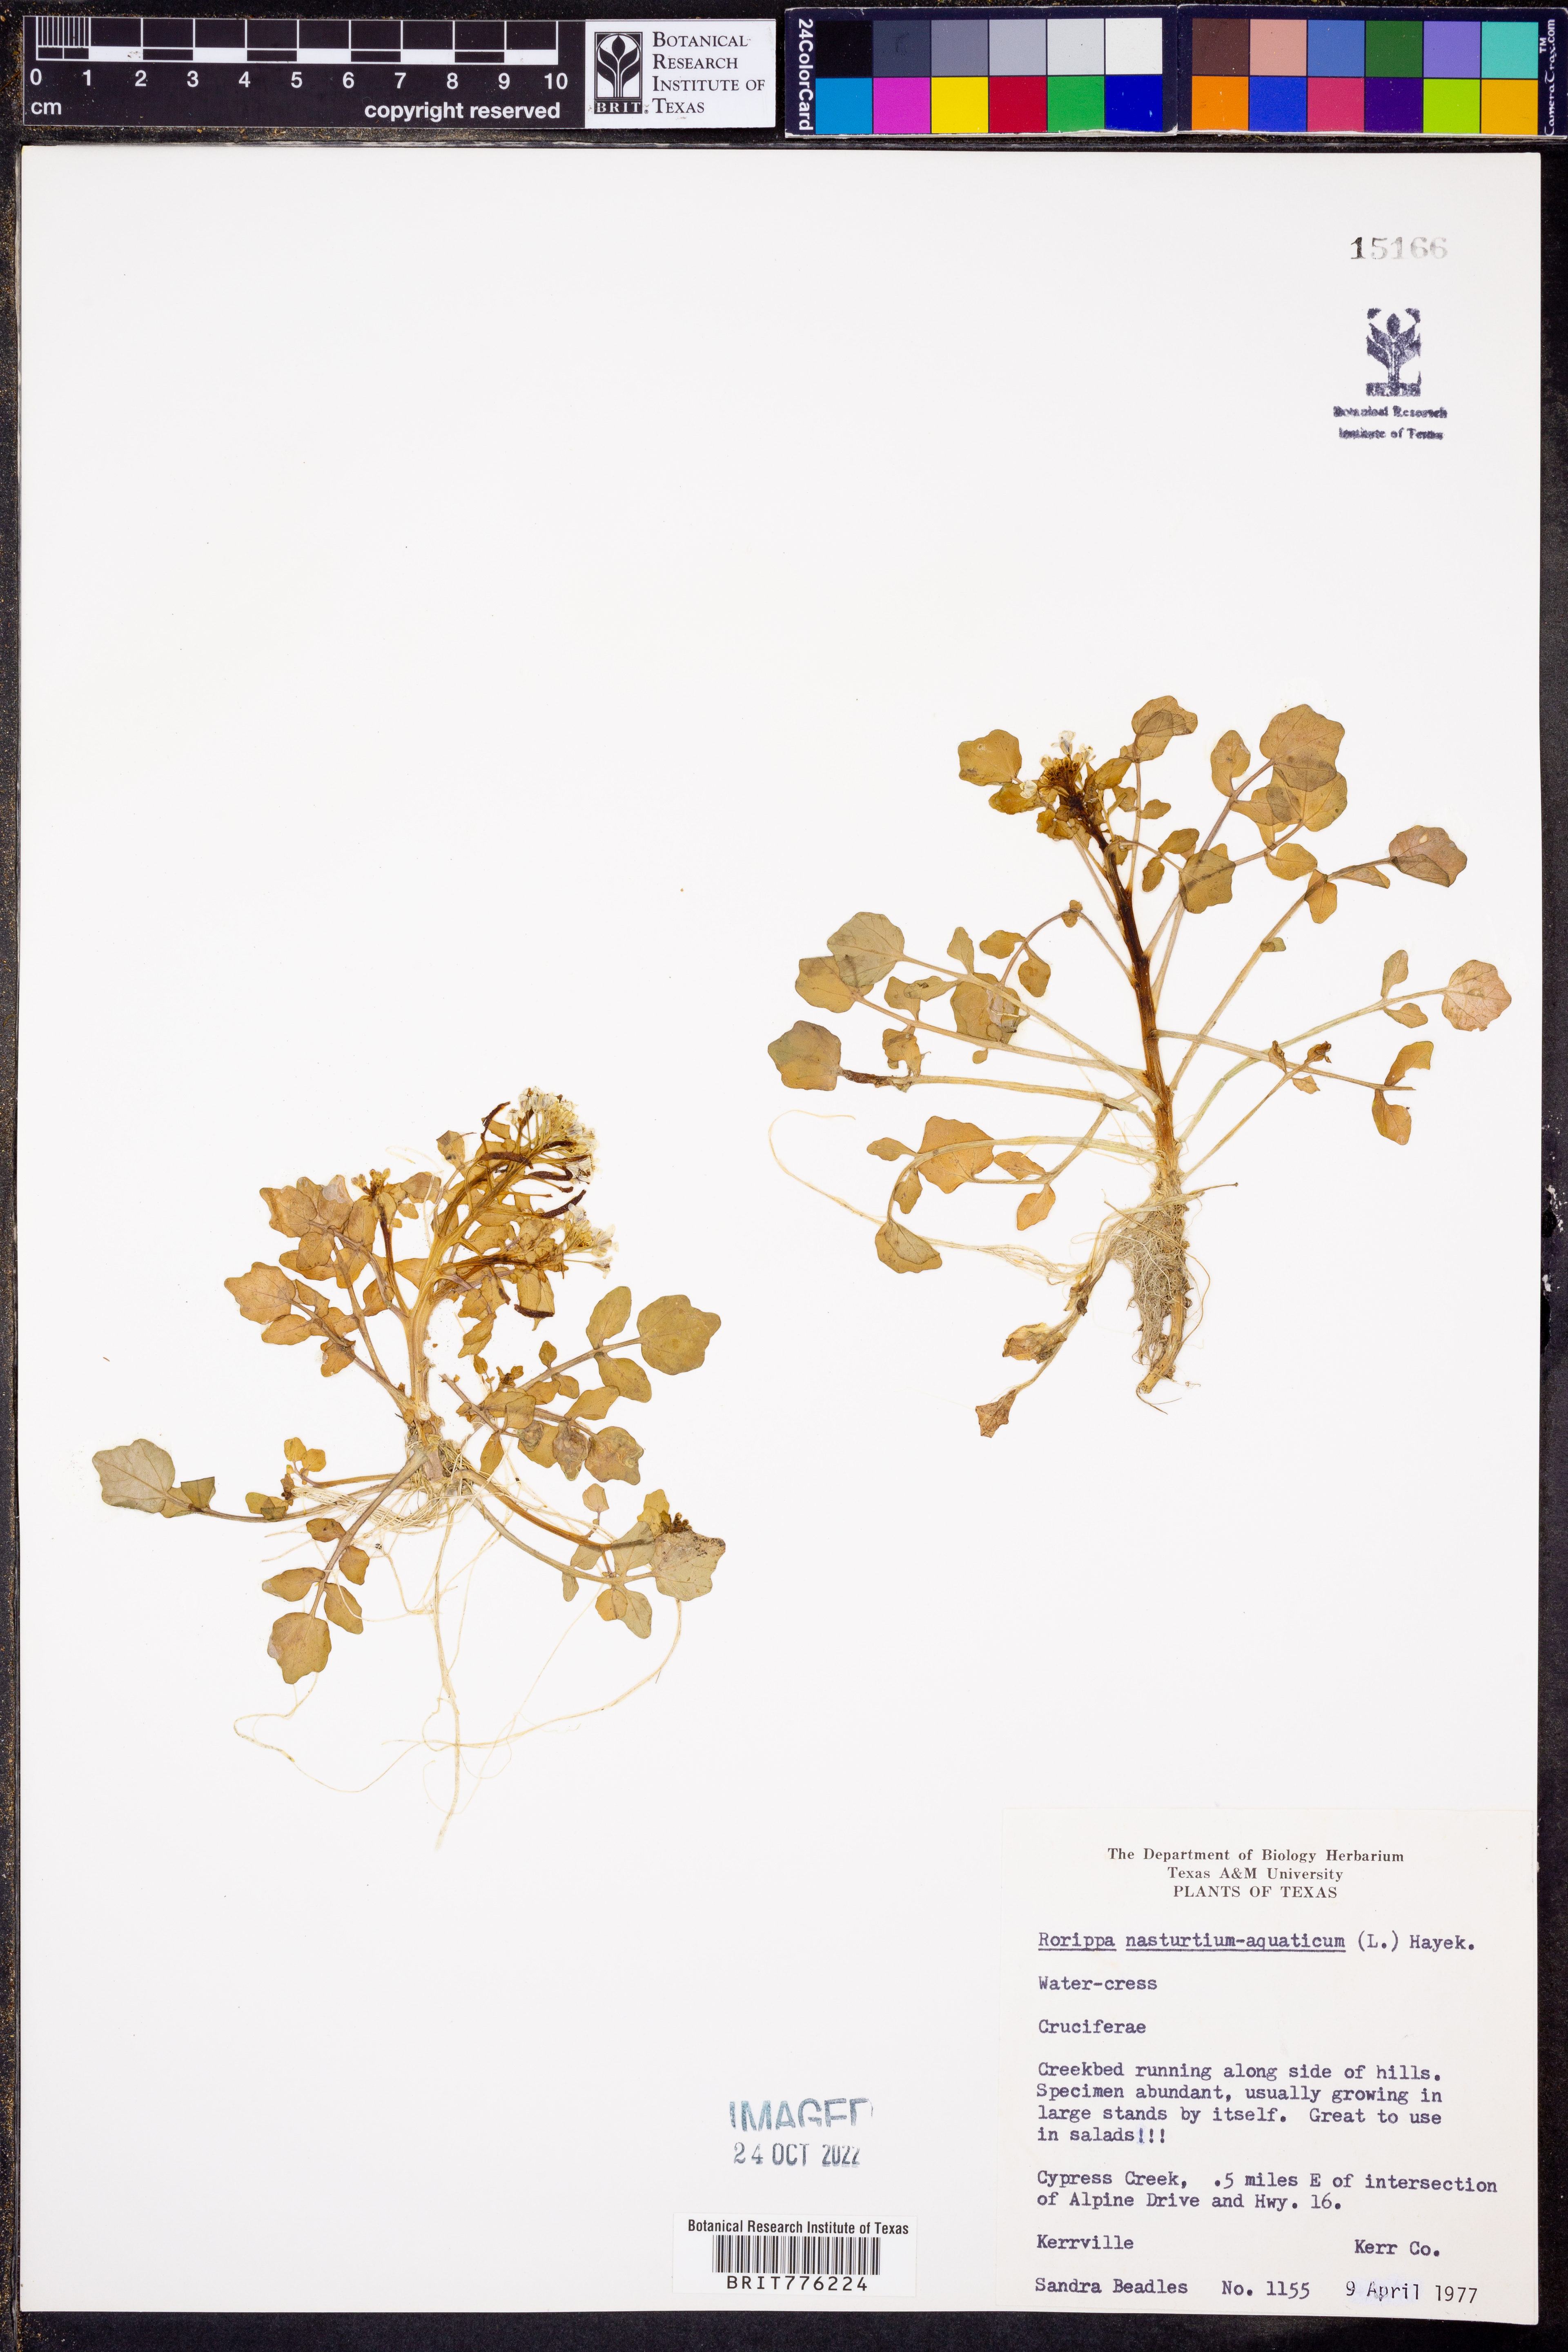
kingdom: Plantae
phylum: Tracheophyta
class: Magnoliopsida
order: Brassicales
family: Brassicaceae
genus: Nasturtium
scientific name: Nasturtium officinale
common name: Watercress
